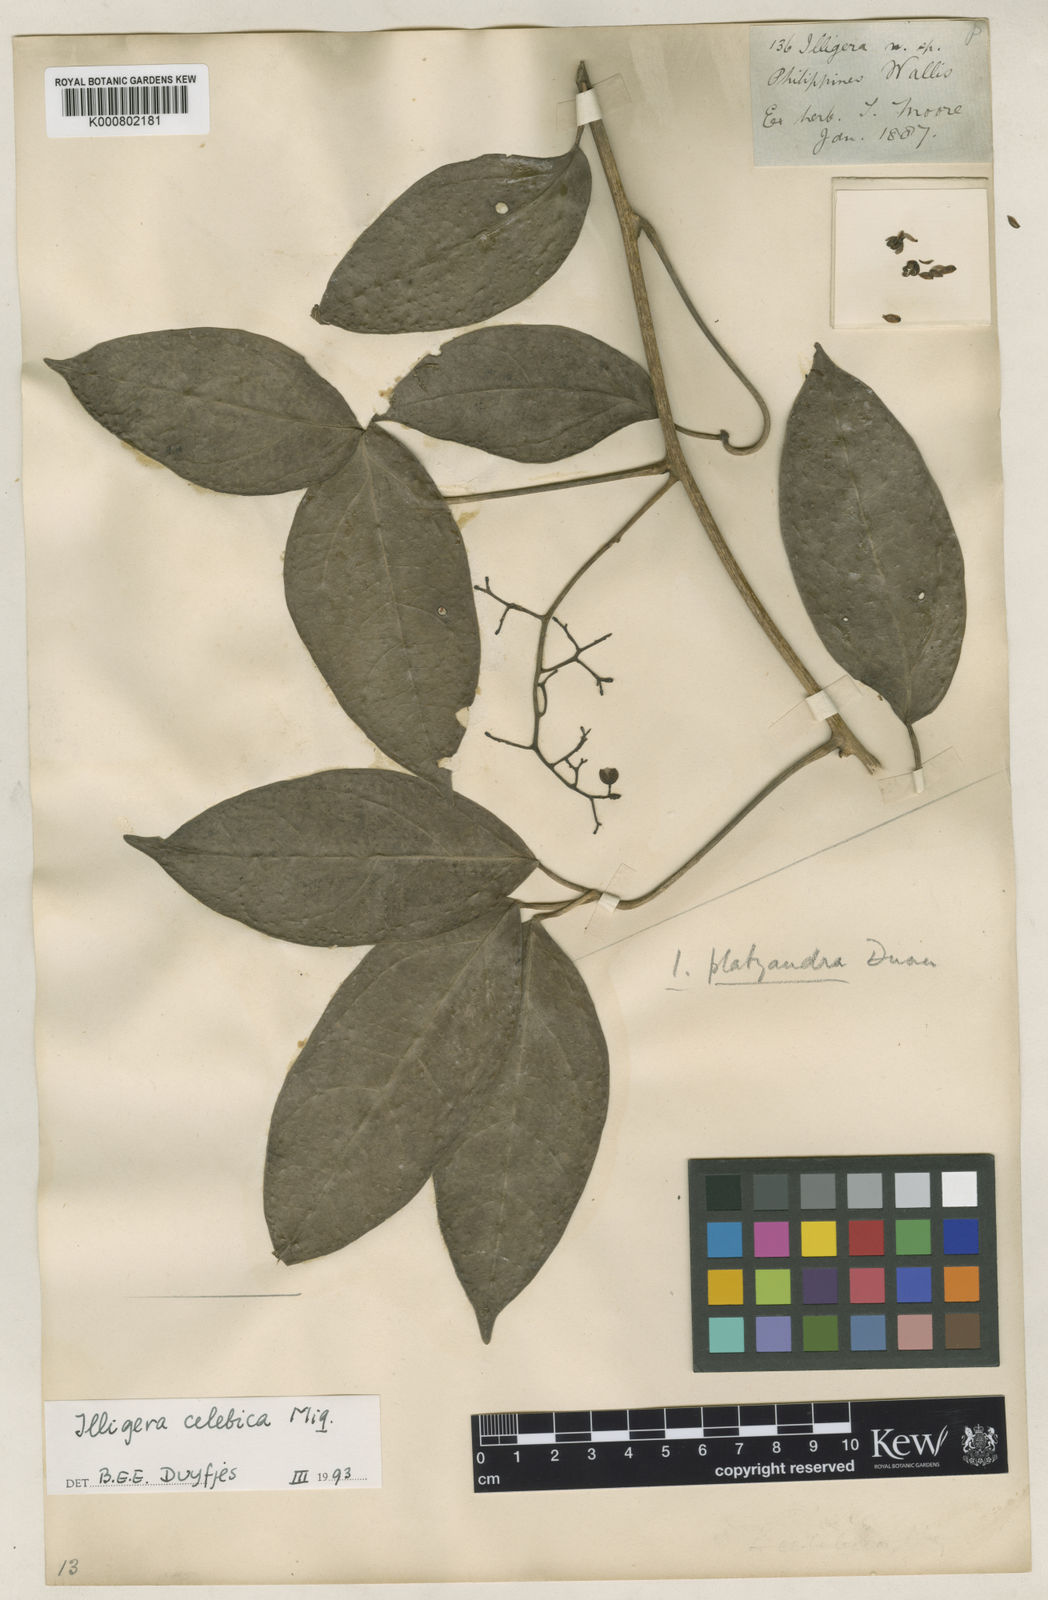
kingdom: Plantae
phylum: Tracheophyta
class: Magnoliopsida
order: Laurales
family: Hernandiaceae
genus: Illigera
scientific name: Illigera celebica
